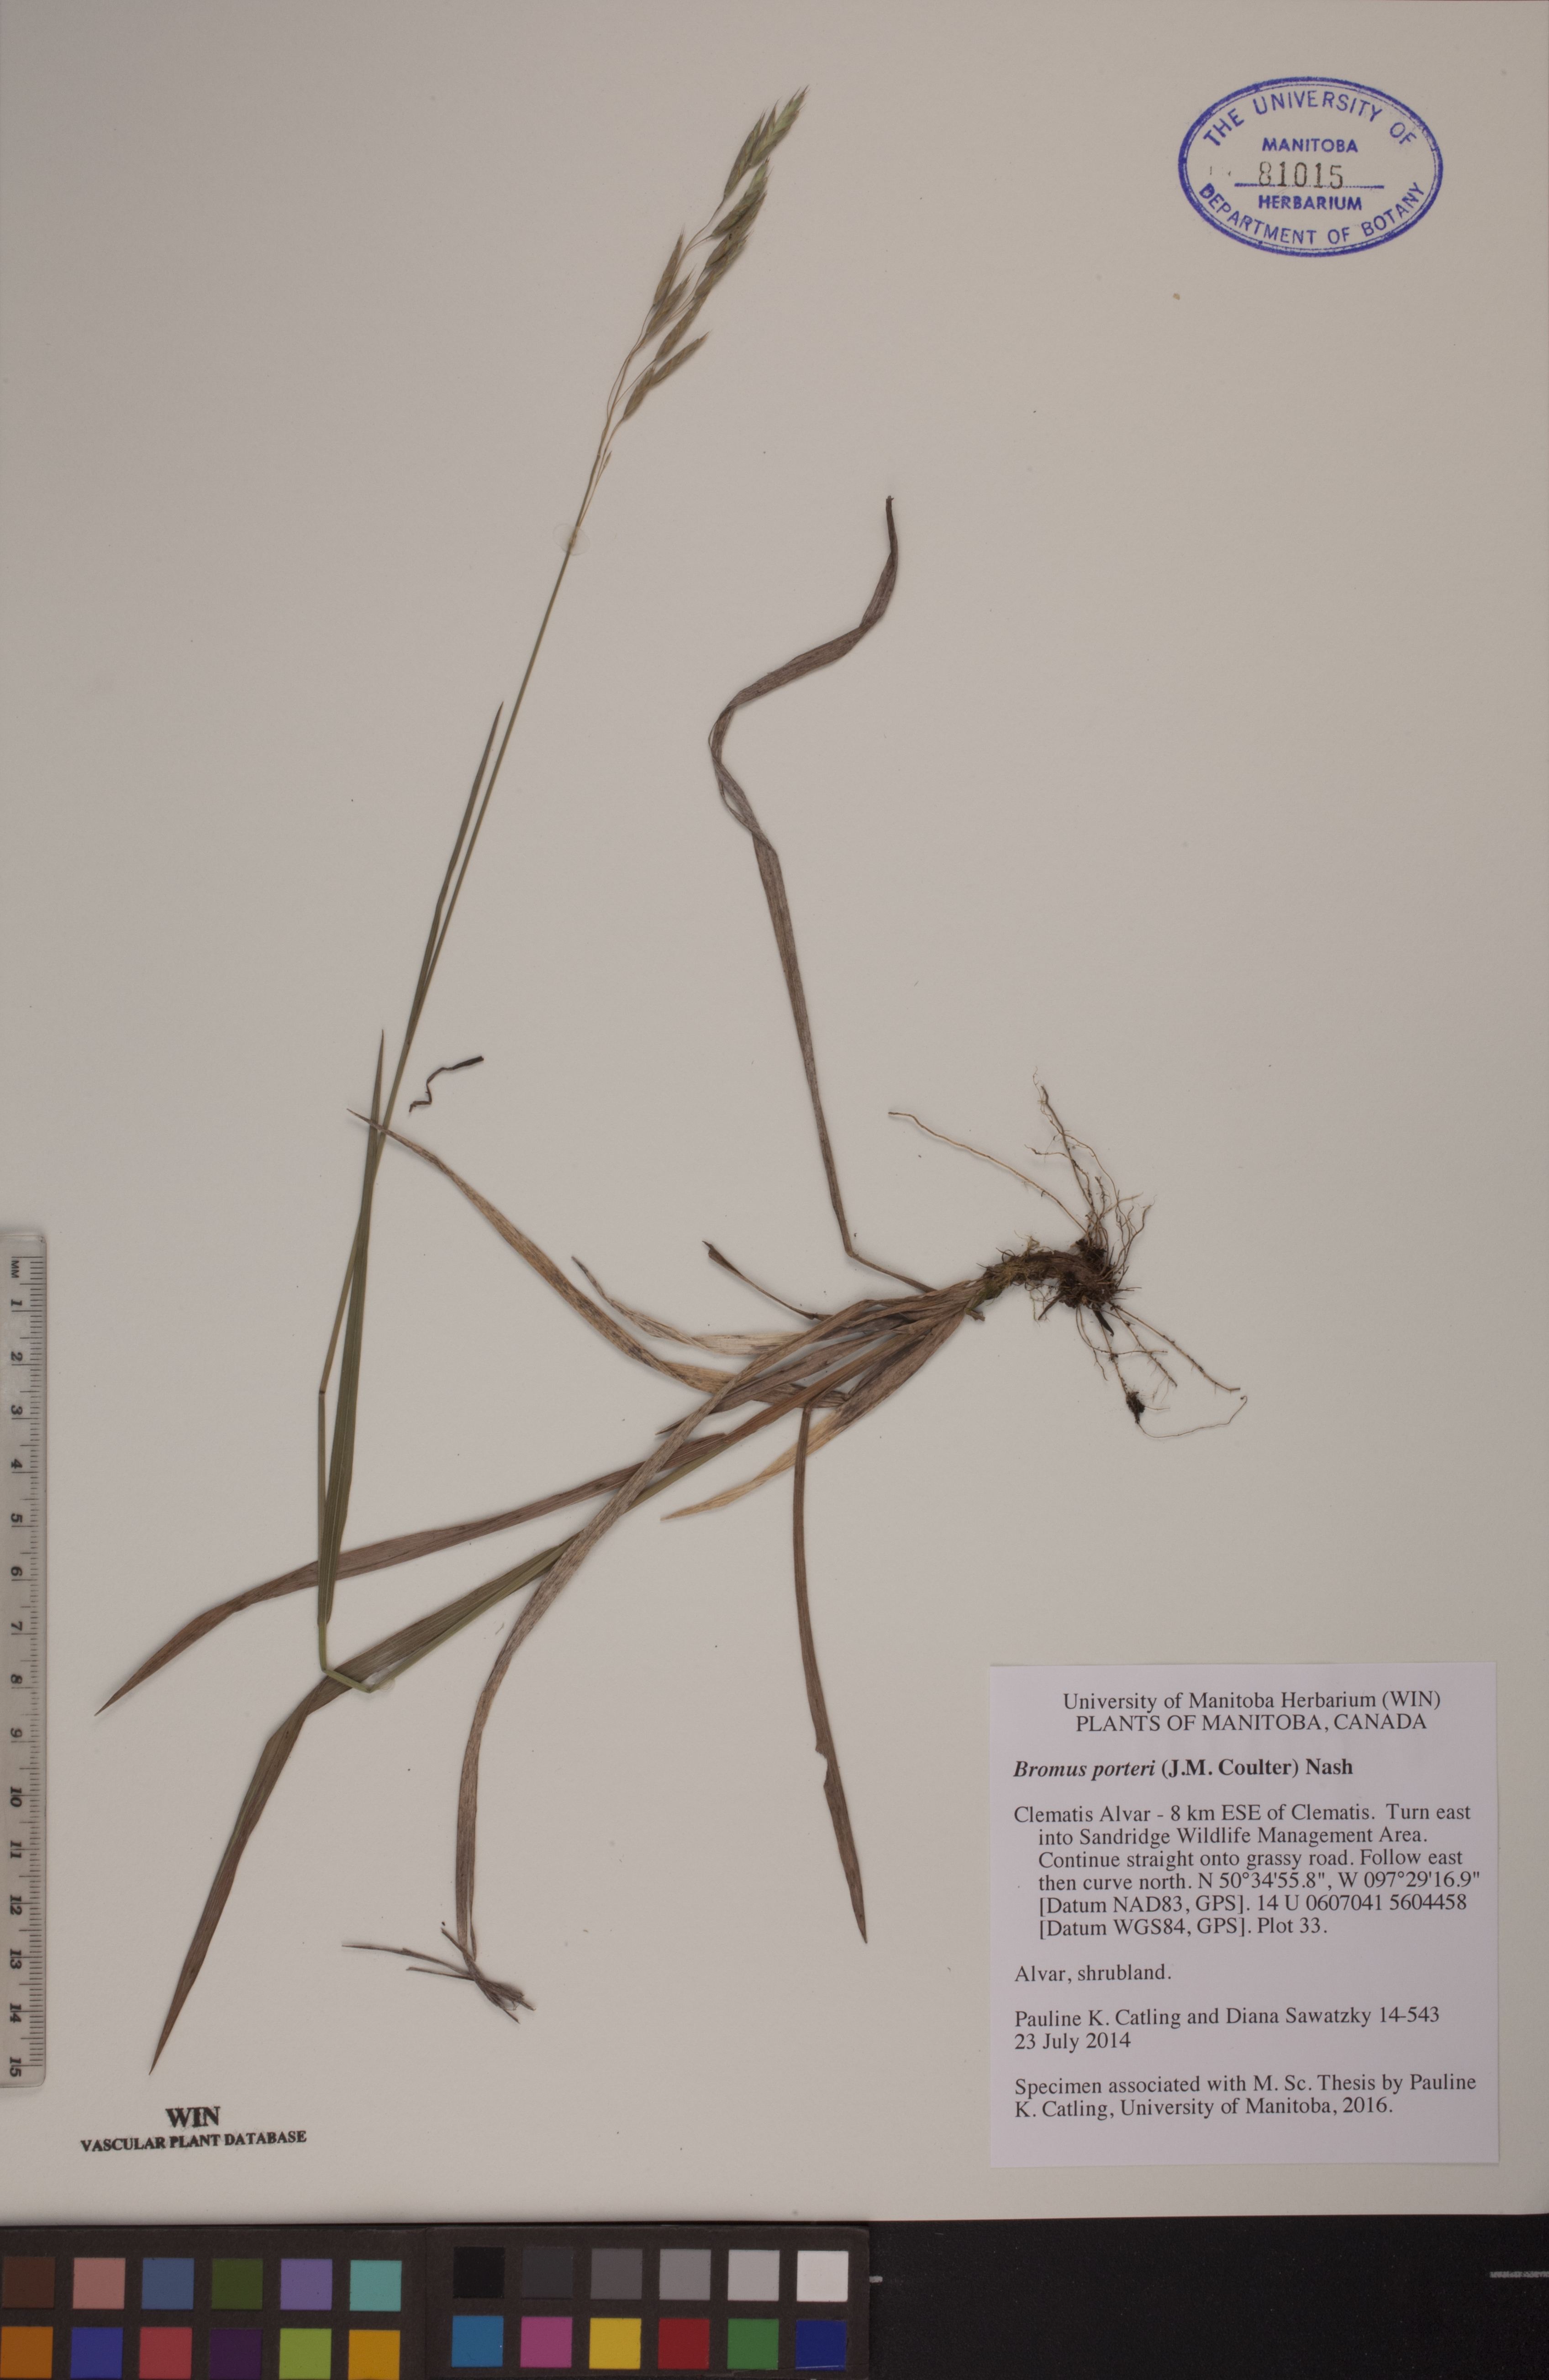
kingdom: Plantae
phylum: Tracheophyta
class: Liliopsida
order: Poales
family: Poaceae
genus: Bromus
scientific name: Bromus porteri
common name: Nodding brome
